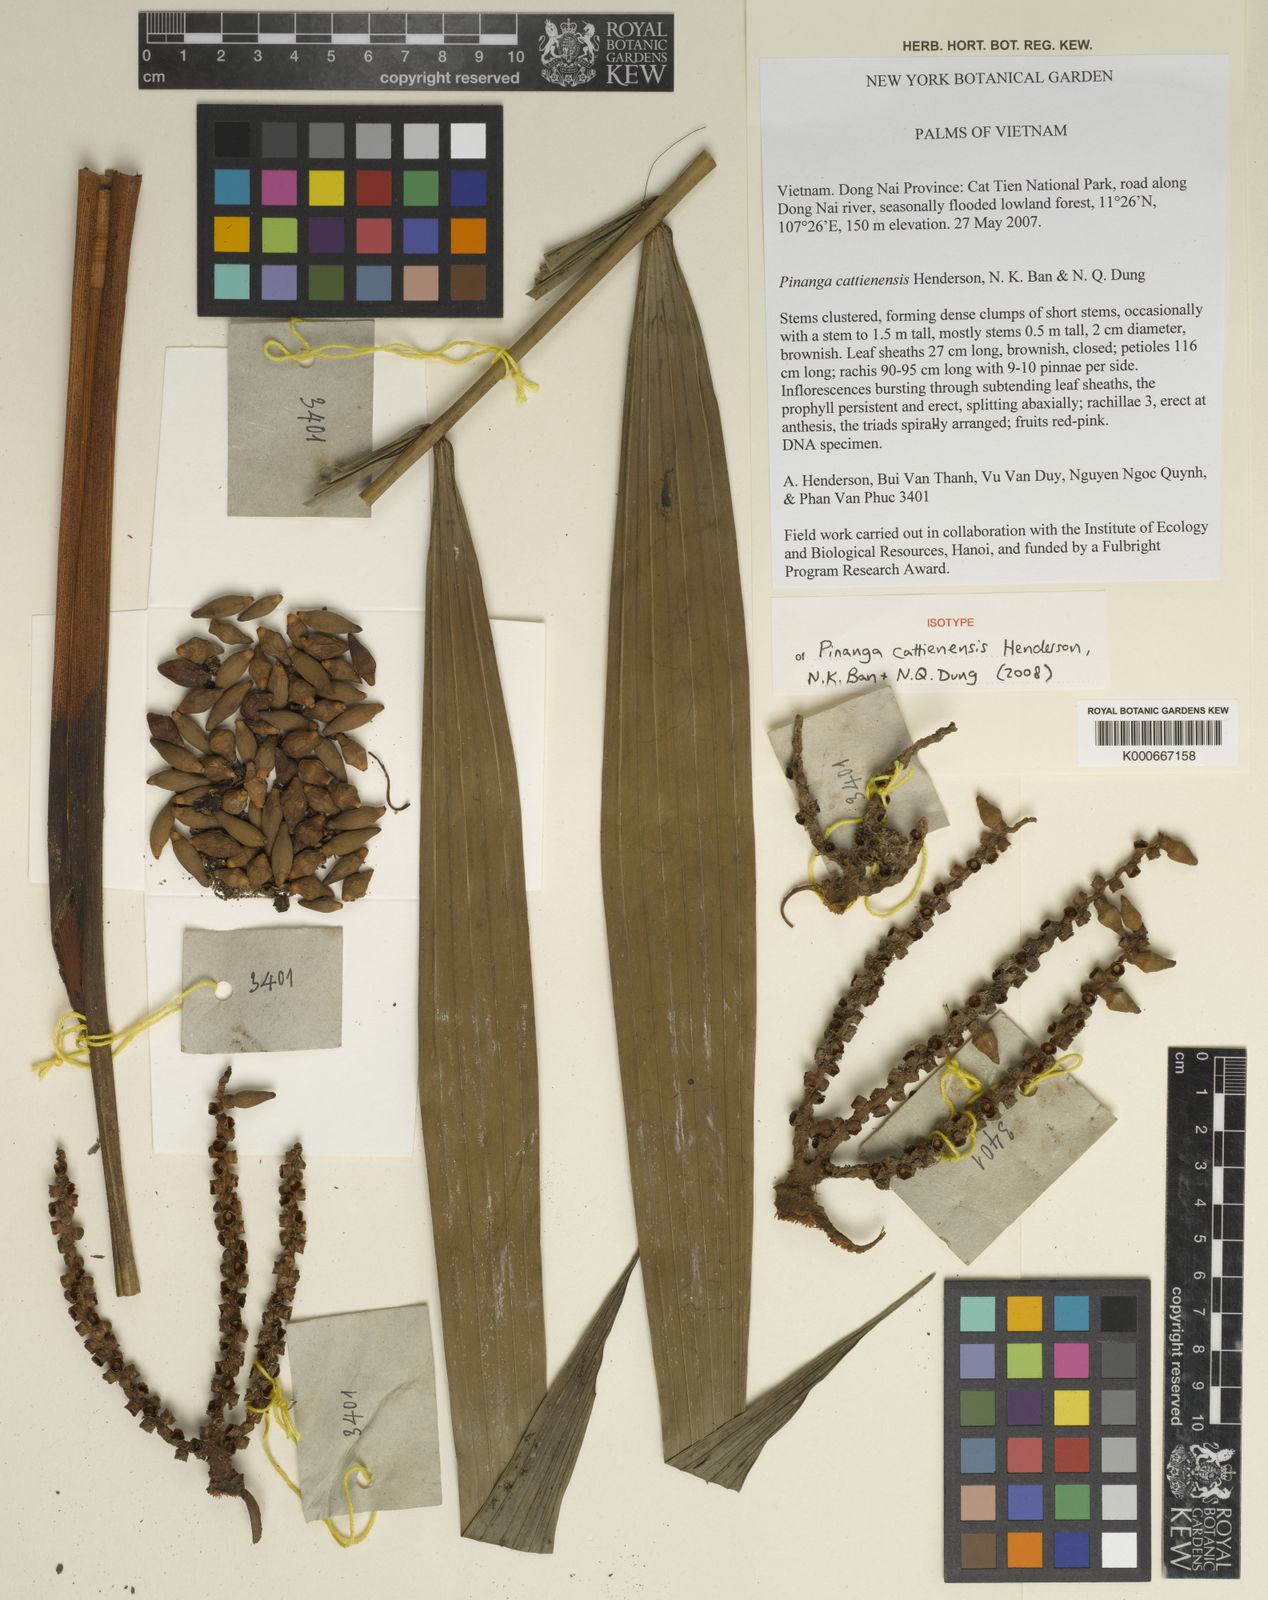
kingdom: Plantae
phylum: Tracheophyta
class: Liliopsida
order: Arecales
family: Arecaceae
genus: Pinanga
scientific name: Pinanga cattienensis
